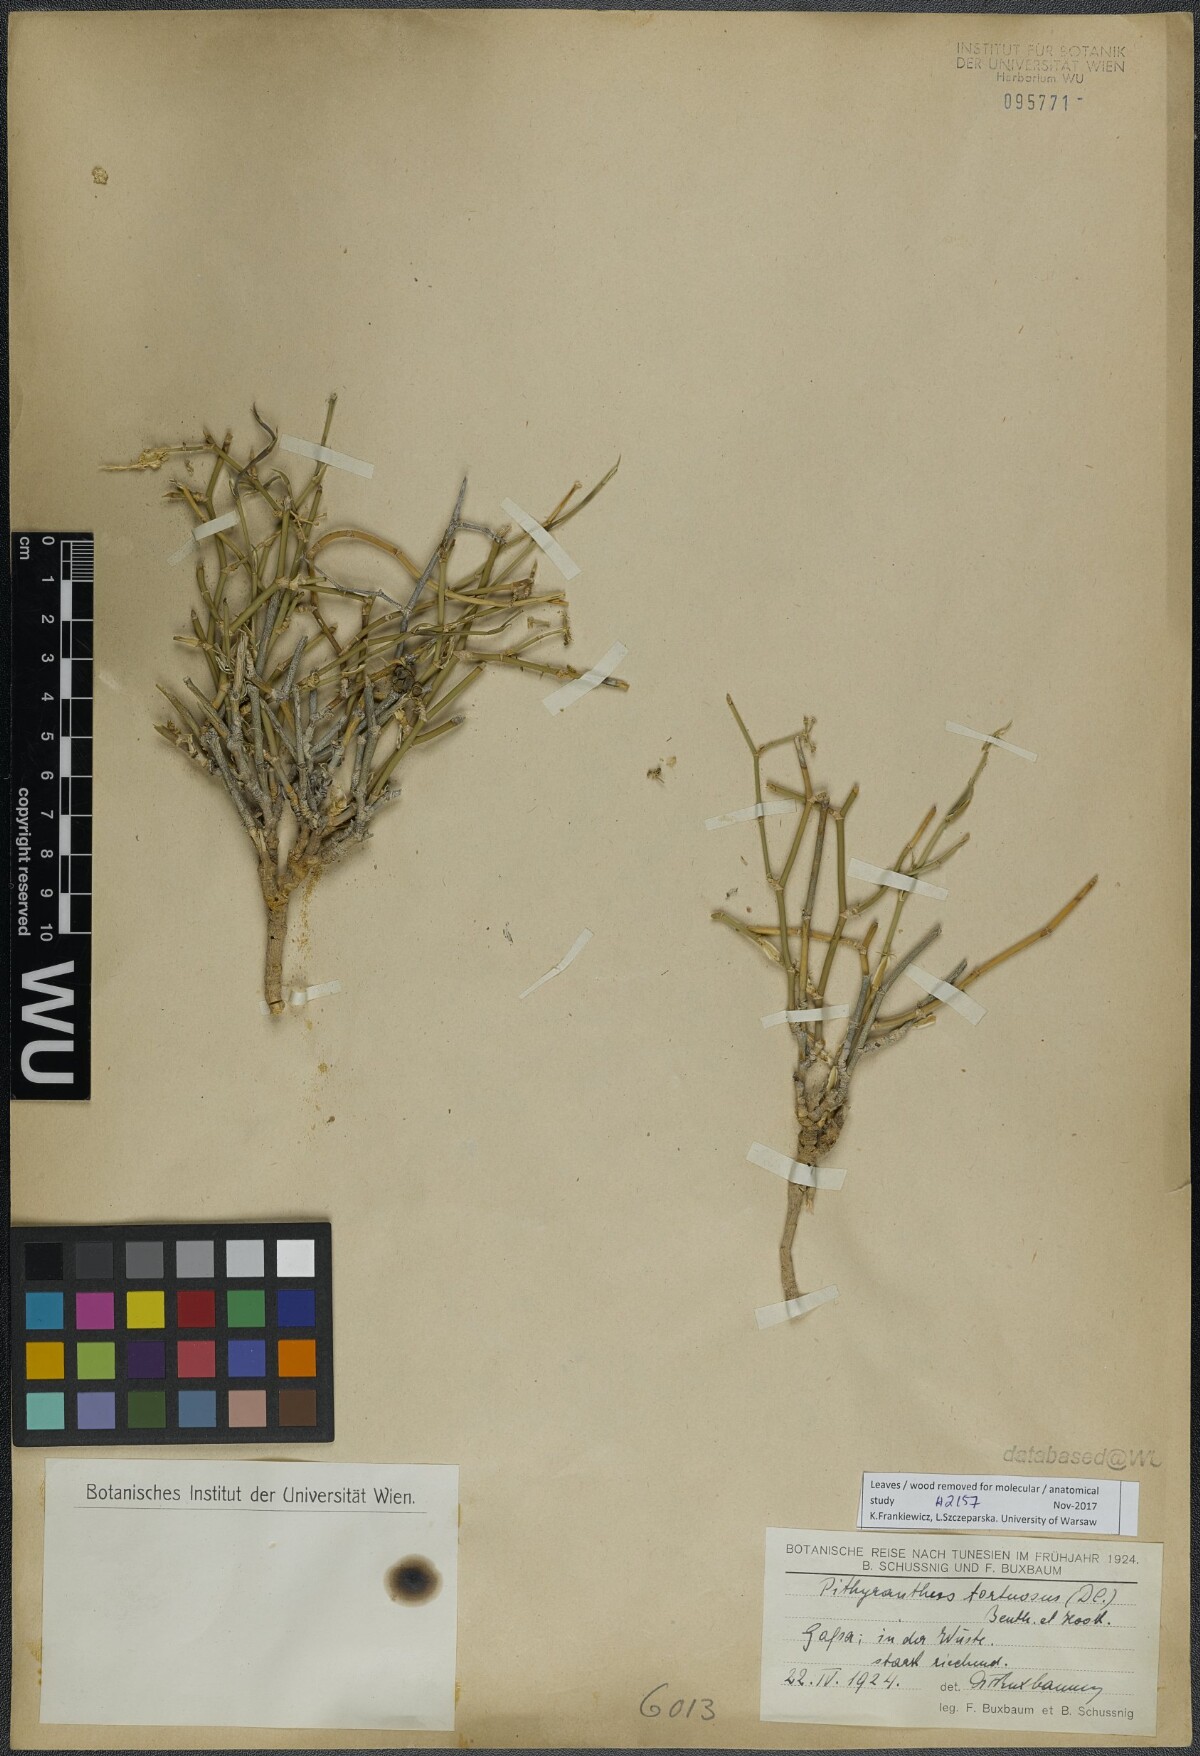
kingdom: Plantae
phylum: Tracheophyta
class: Magnoliopsida
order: Apiales
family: Apiaceae
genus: Deverra
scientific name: Deverra tortuosa
